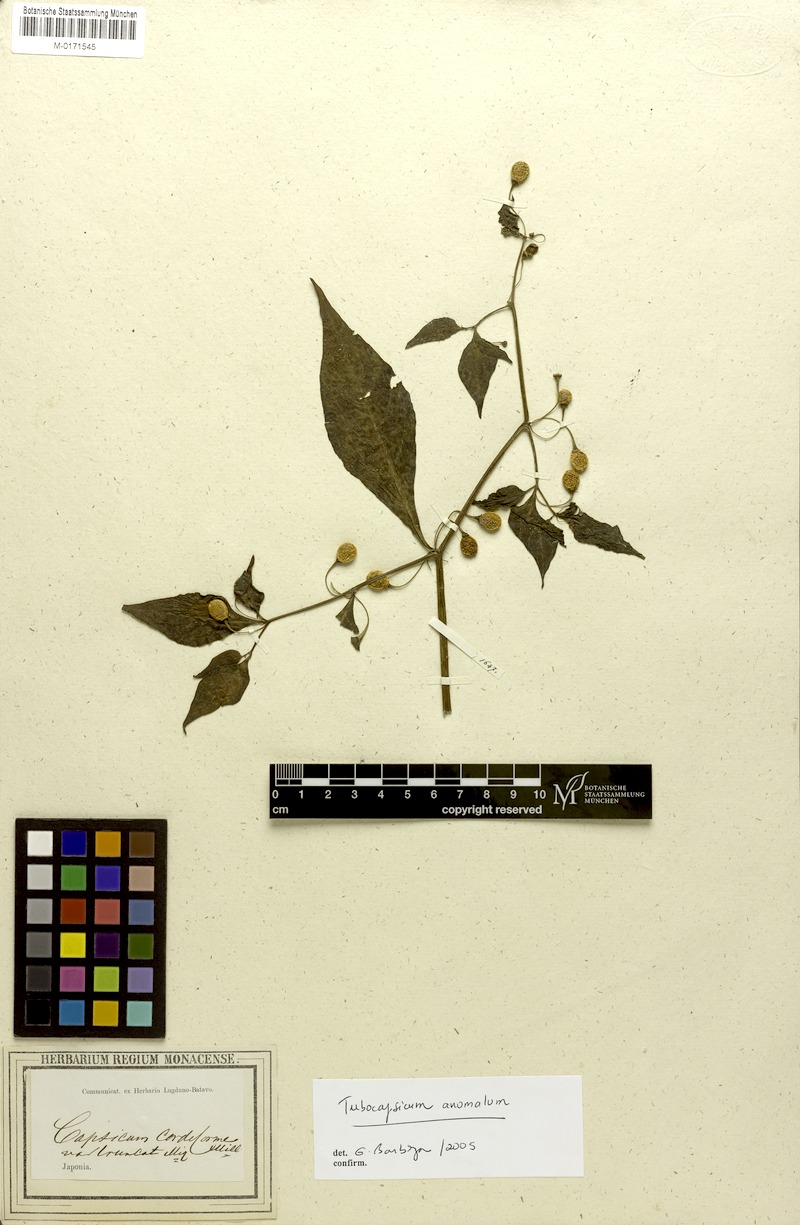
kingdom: Plantae
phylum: Tracheophyta
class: Magnoliopsida
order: Solanales
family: Solanaceae
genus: Tubocapsicum
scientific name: Tubocapsicum anomalum
